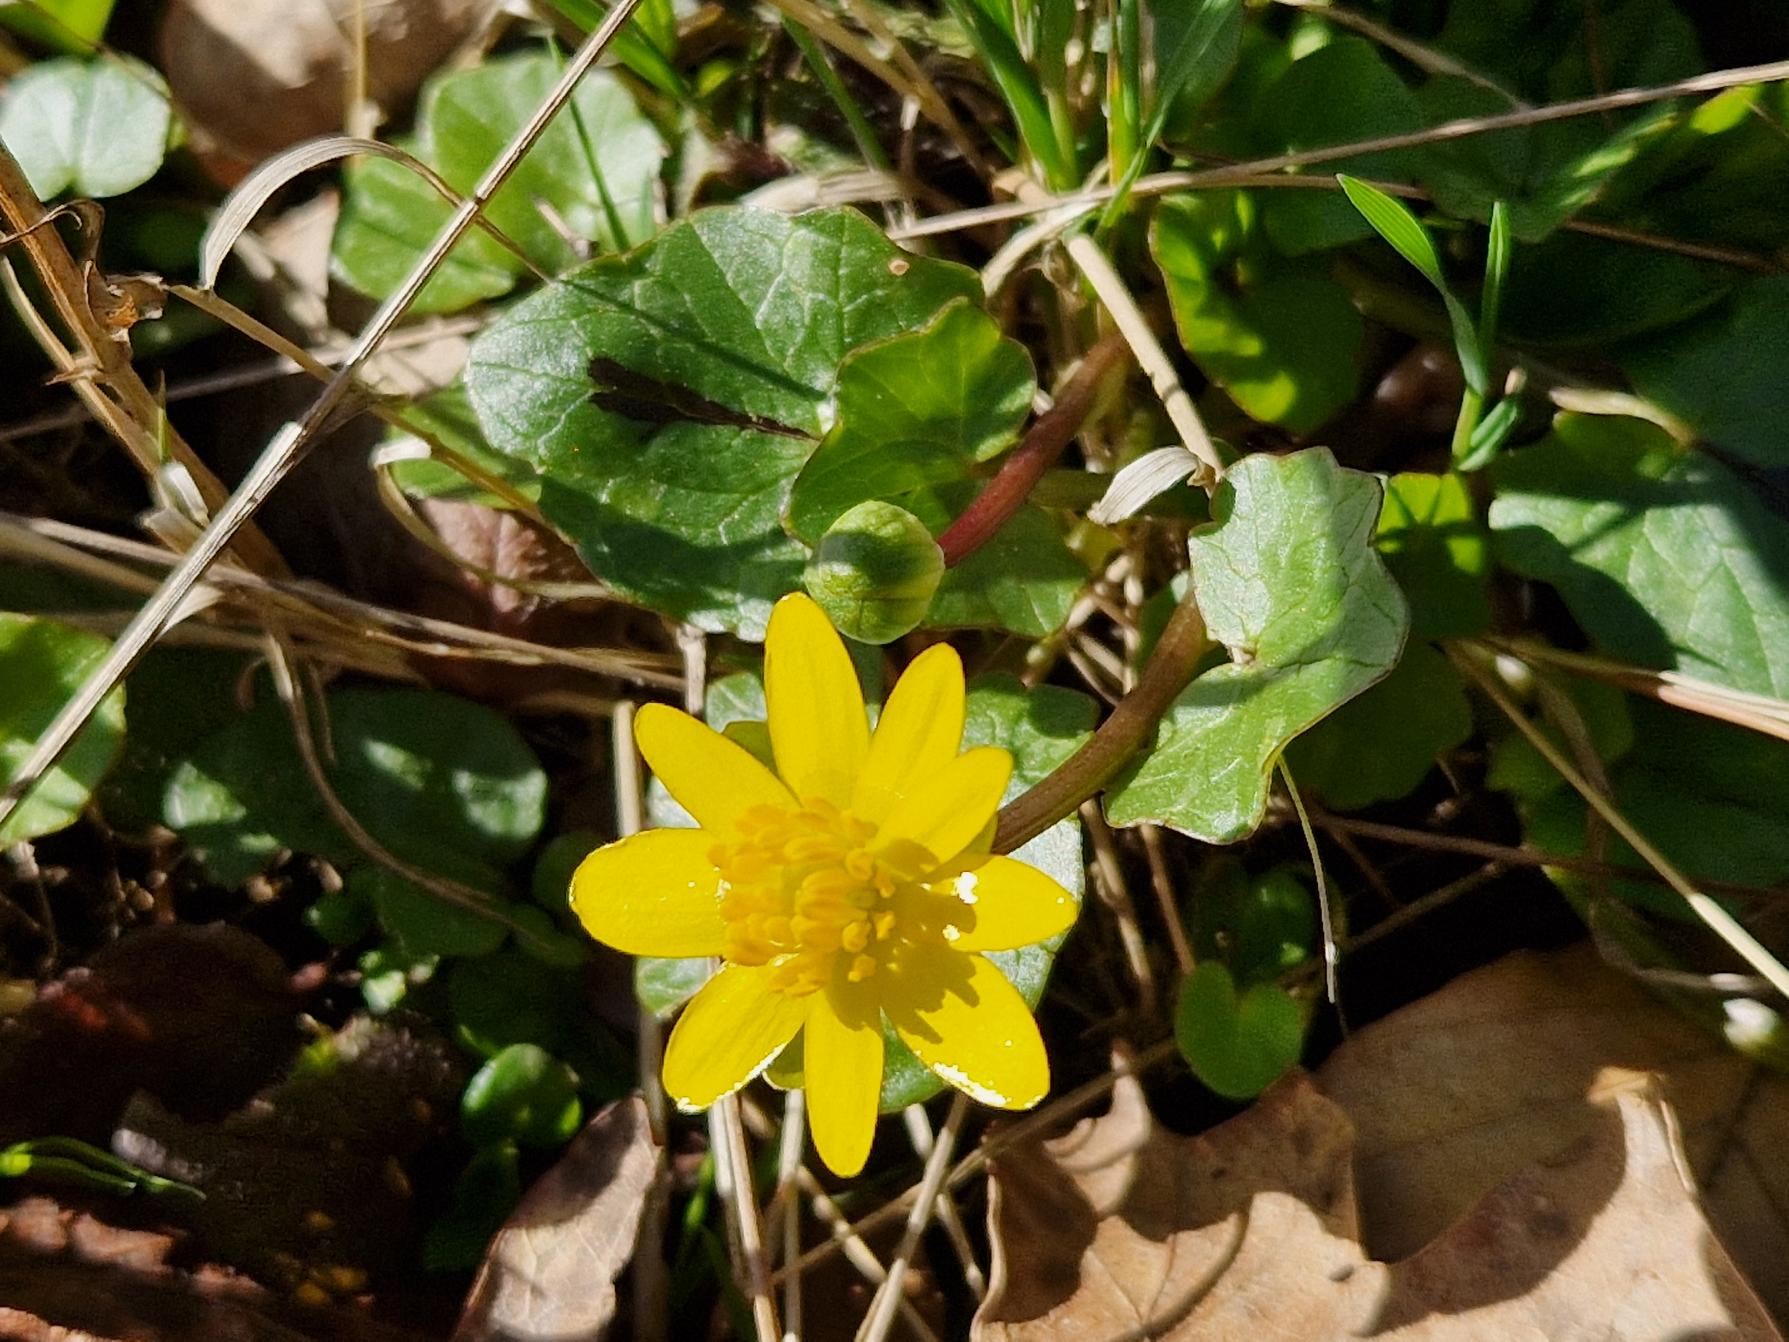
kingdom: Plantae
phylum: Tracheophyta
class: Magnoliopsida
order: Ranunculales
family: Ranunculaceae
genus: Ficaria
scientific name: Ficaria verna
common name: Vorterod
